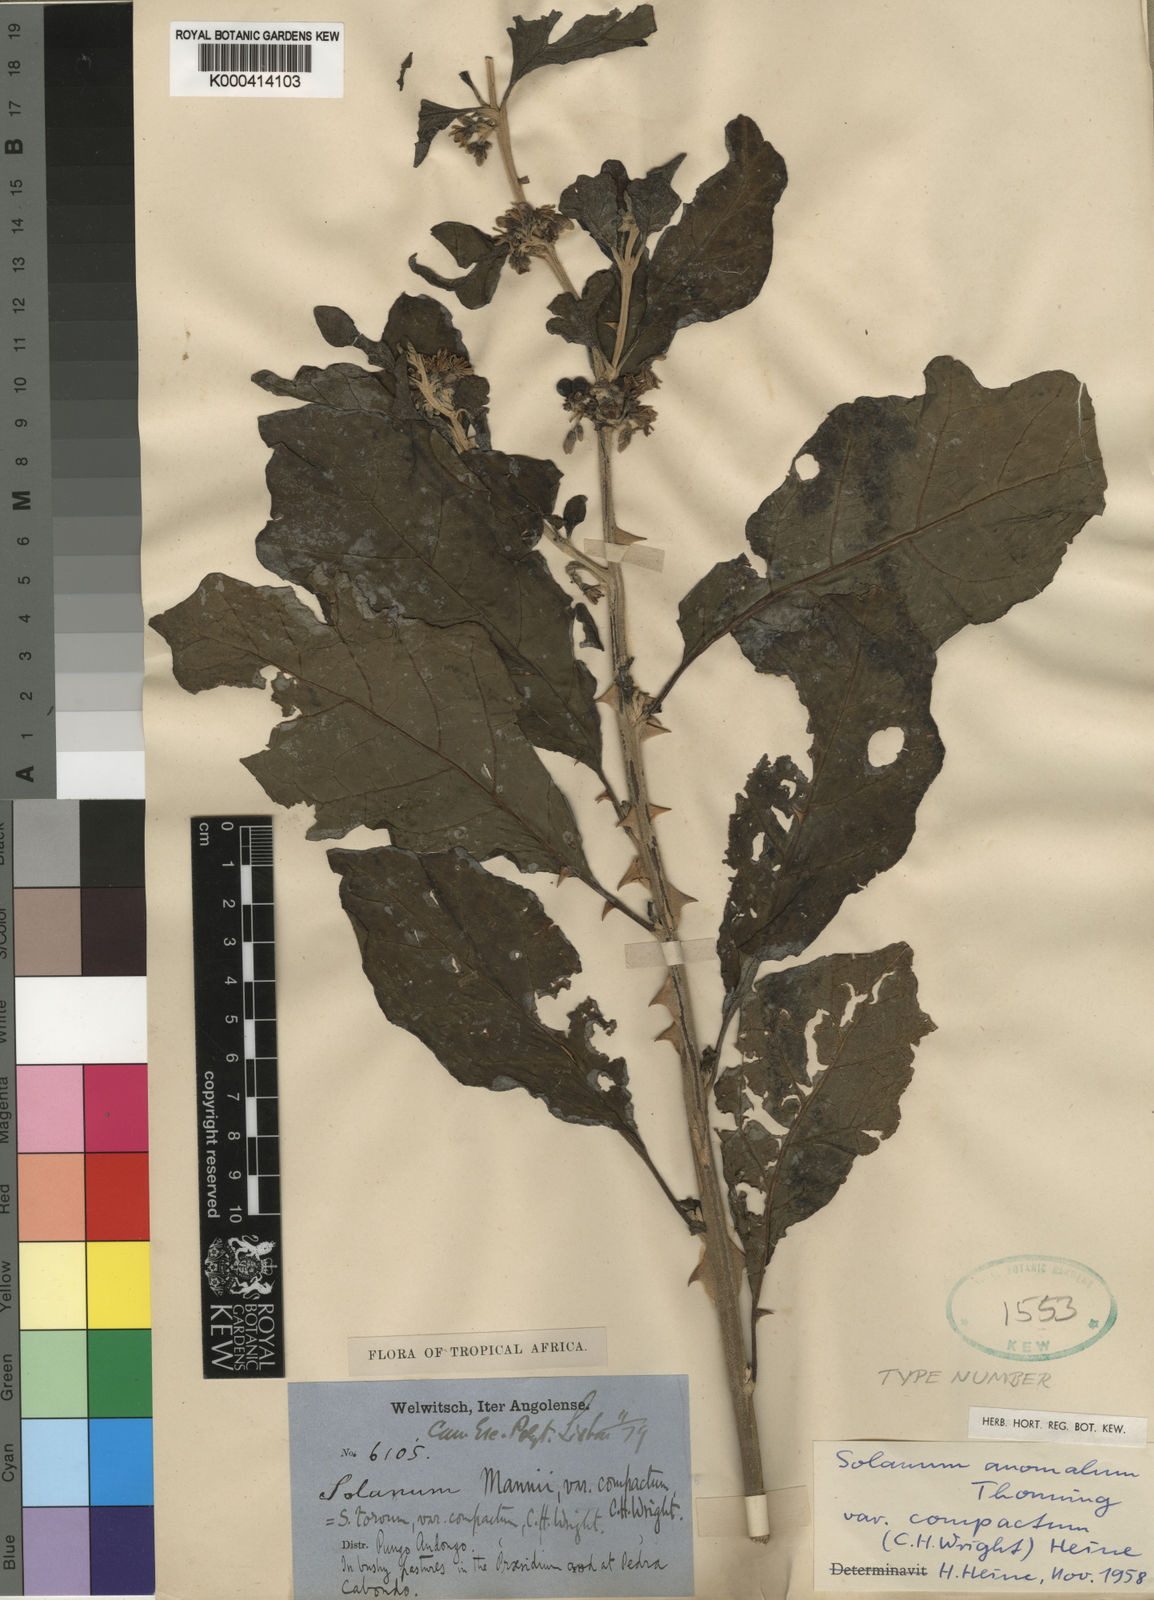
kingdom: Plantae
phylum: Tracheophyta
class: Magnoliopsida
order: Solanales
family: Solanaceae
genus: Solanum
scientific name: Solanum anomalum
